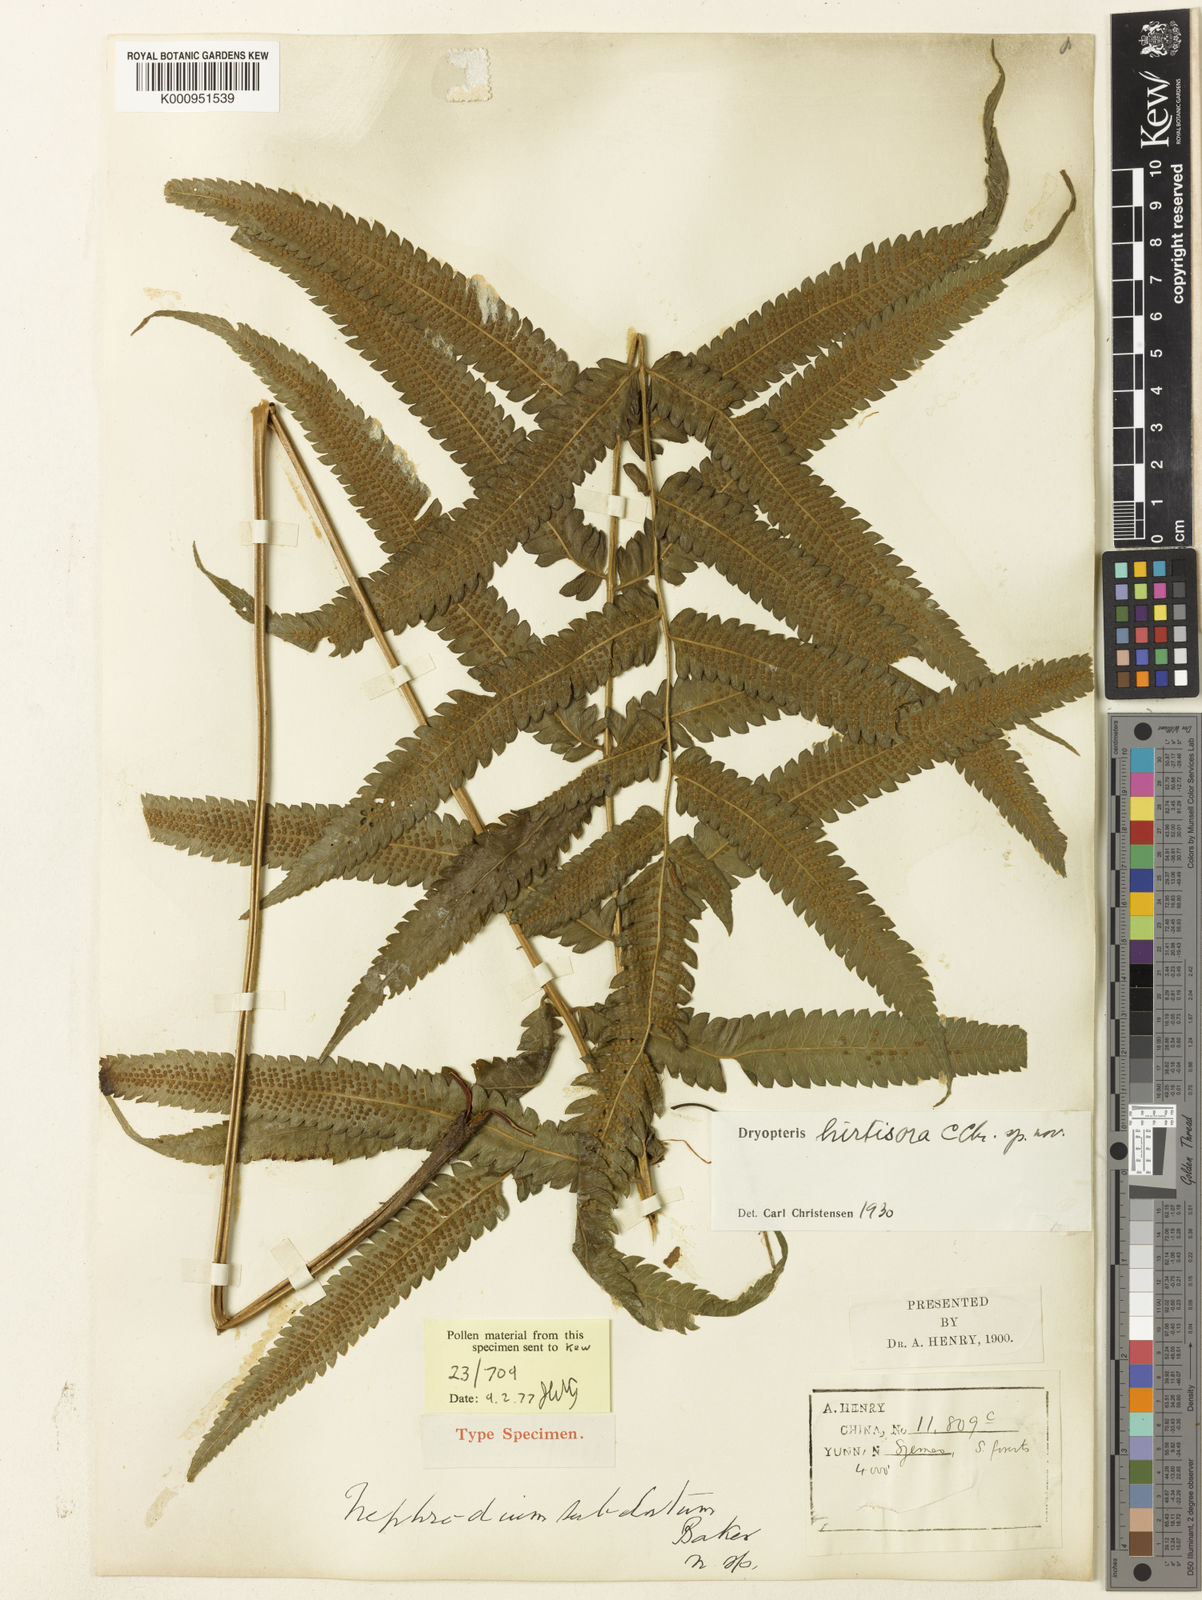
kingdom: Plantae
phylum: Tracheophyta
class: Polypodiopsida
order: Polypodiales
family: Thelypteridaceae
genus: Abacopteris
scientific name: Abacopteris hirtisora
